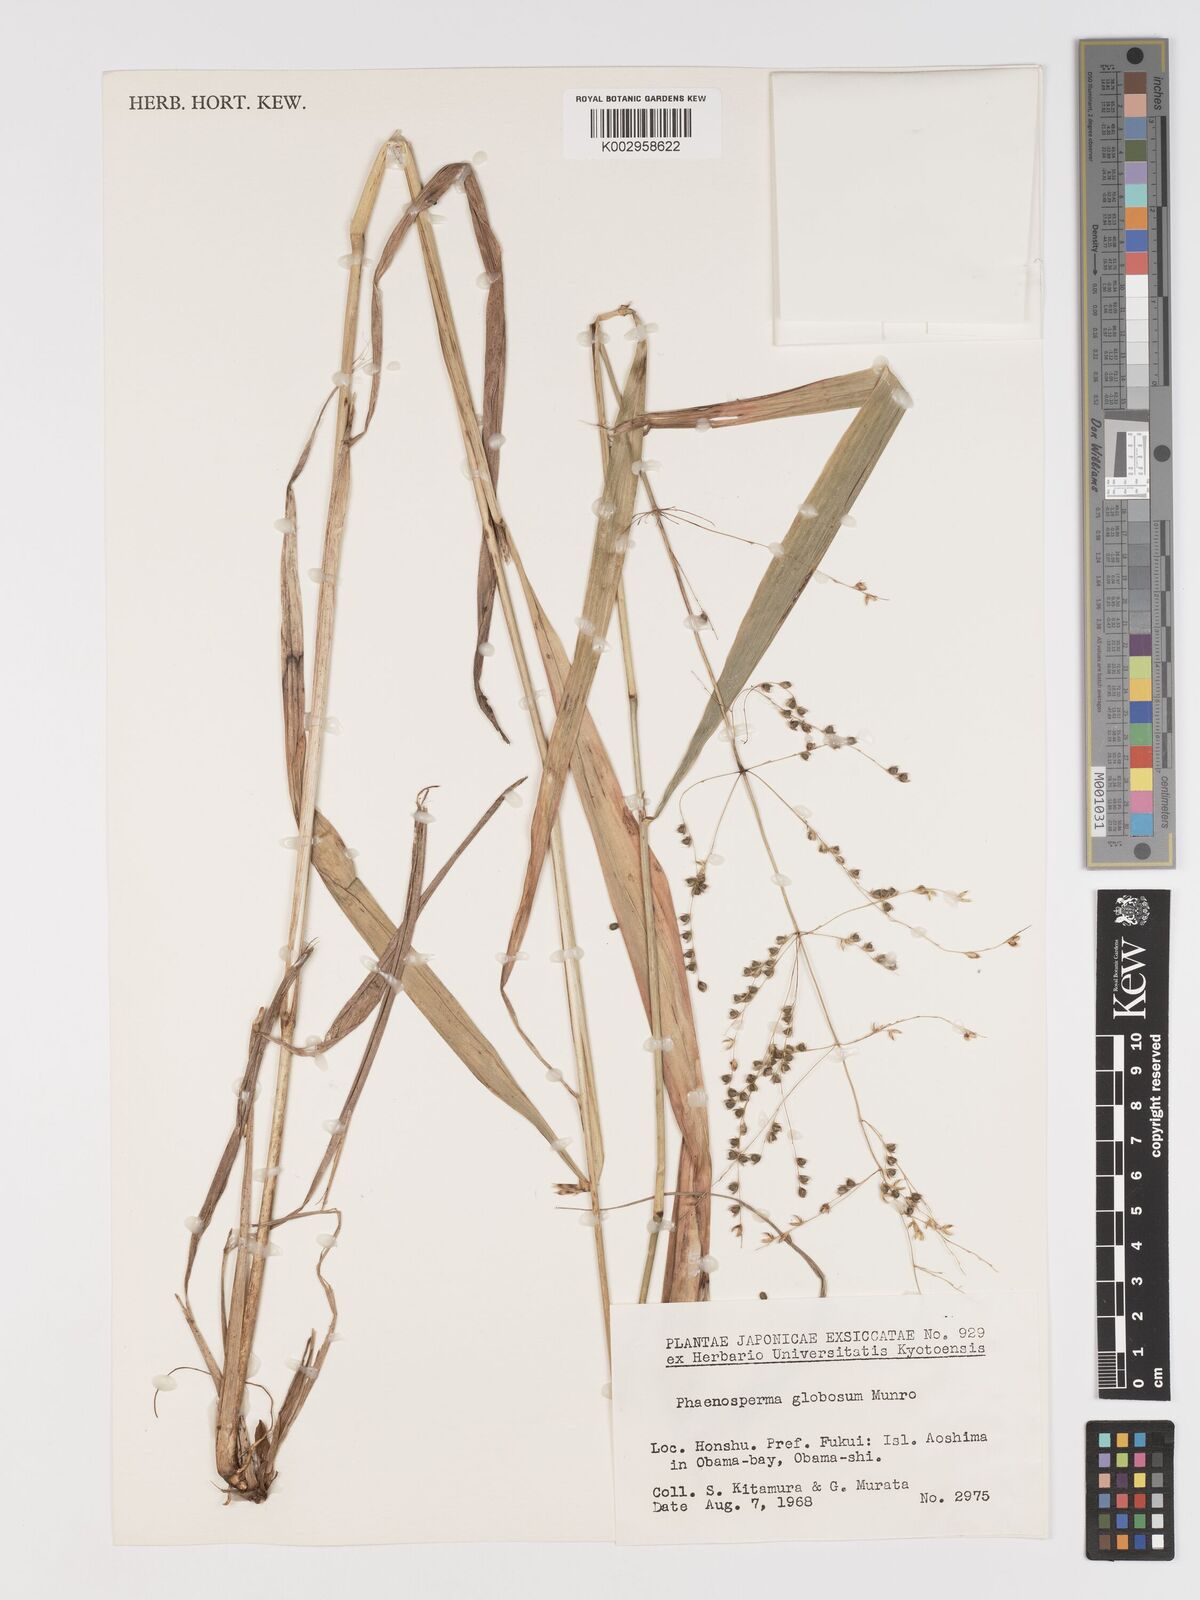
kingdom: Plantae
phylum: Tracheophyta
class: Liliopsida
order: Poales
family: Poaceae
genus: Phaenosperma
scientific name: Phaenosperma globosum
